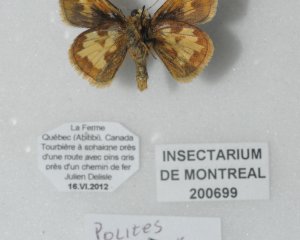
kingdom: Animalia
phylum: Arthropoda
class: Insecta
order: Lepidoptera
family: Hesperiidae
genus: Polites
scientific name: Polites coras
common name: Peck's Skipper
